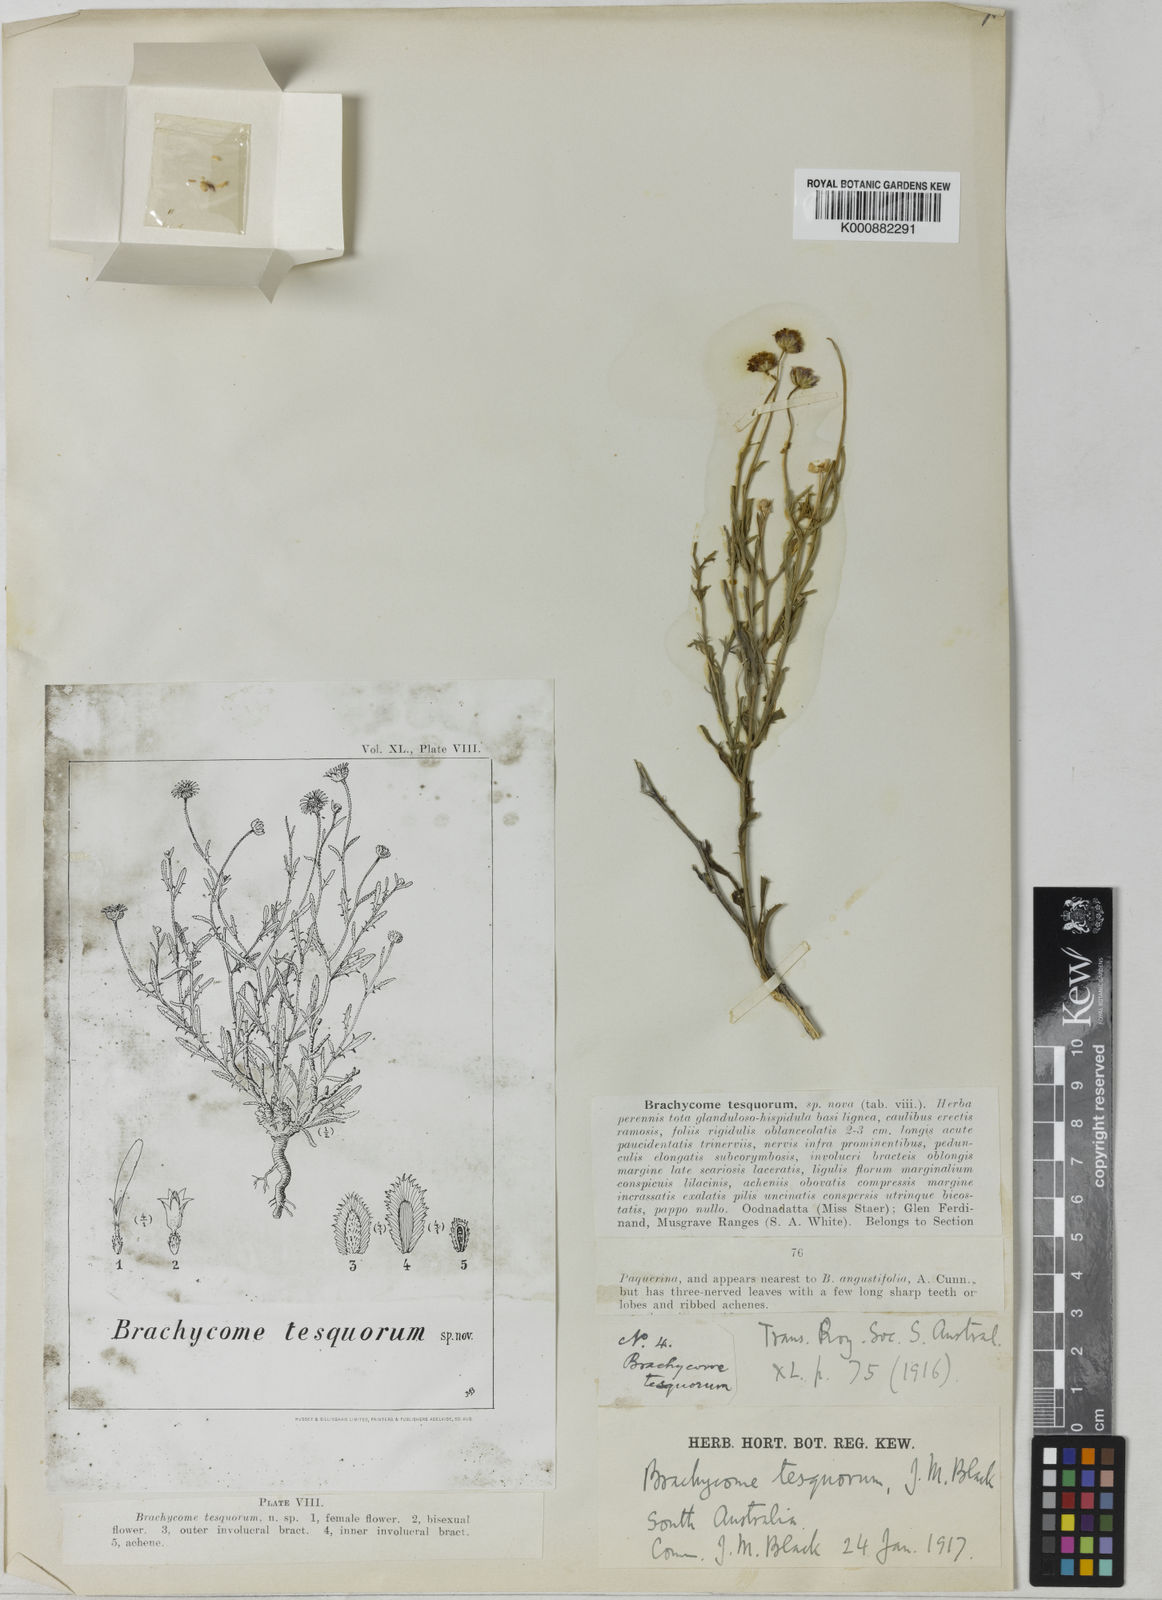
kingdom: Plantae
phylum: Tracheophyta
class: Magnoliopsida
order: Asterales
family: Asteraceae
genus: Brachyscome
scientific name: Brachyscome tesquorum
